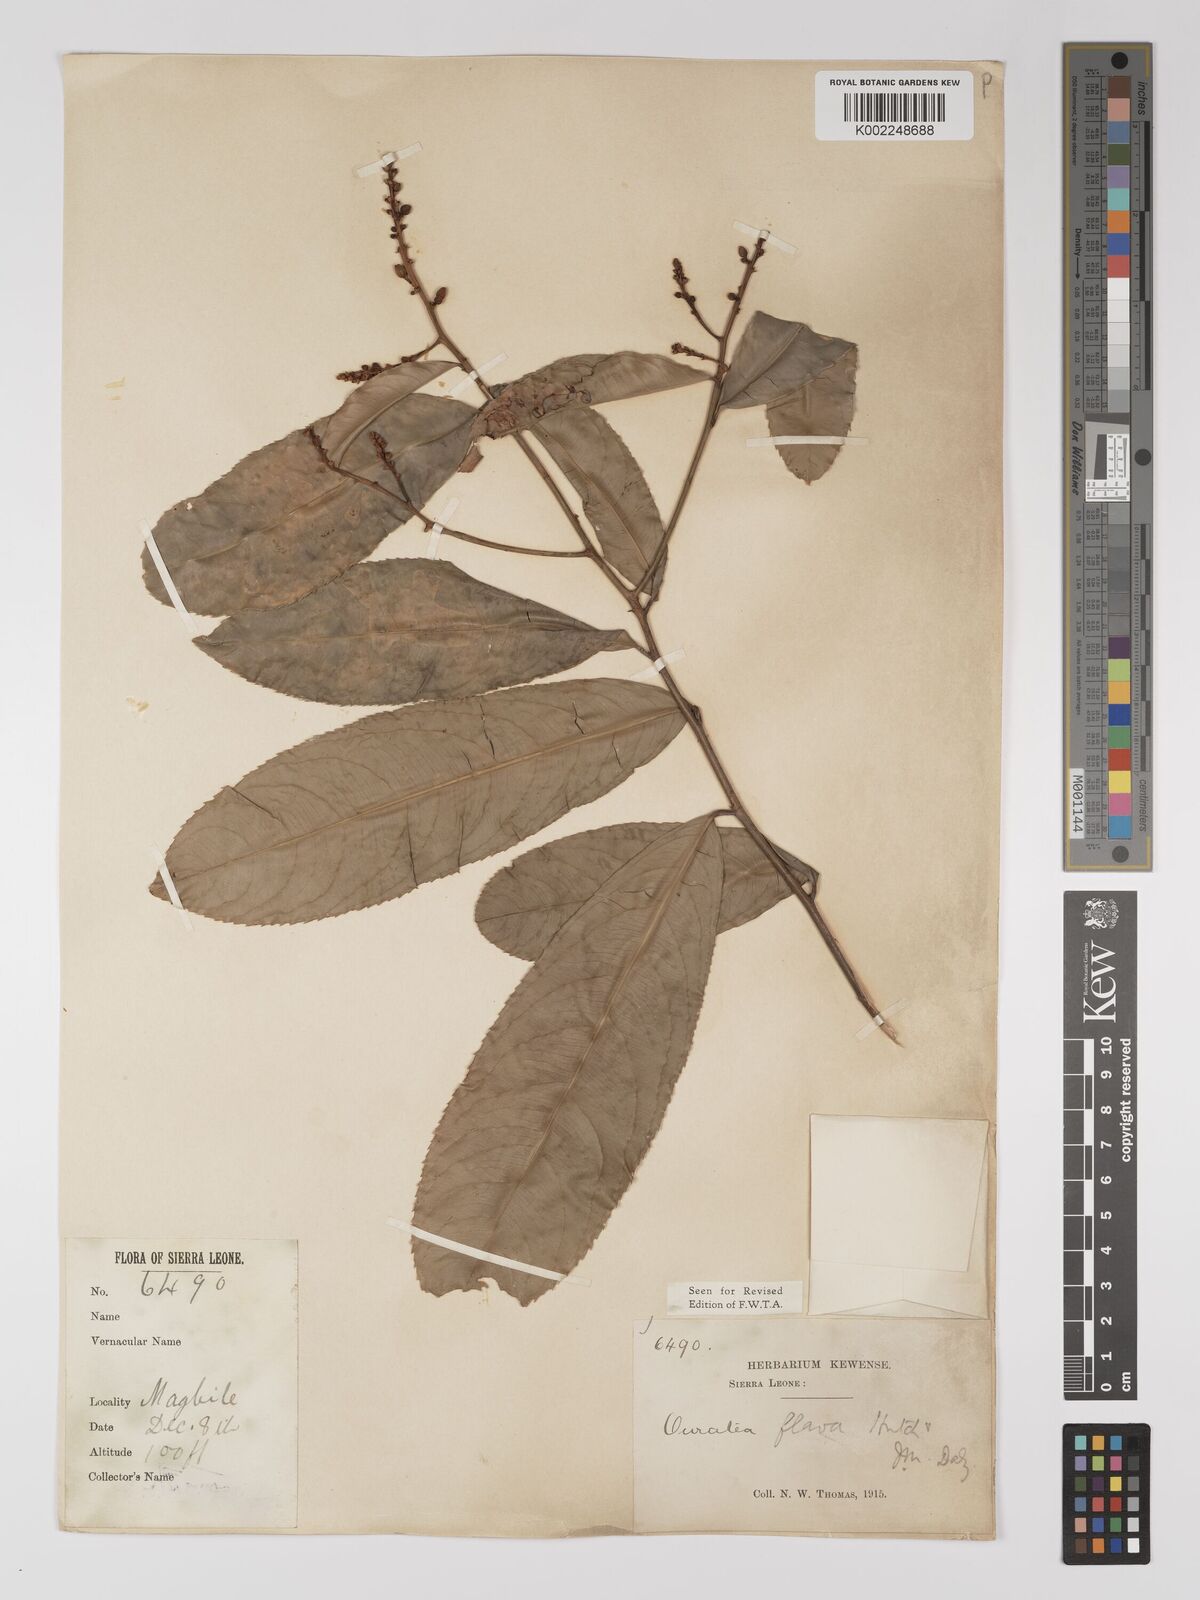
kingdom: Plantae
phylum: Tracheophyta
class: Magnoliopsida
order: Malpighiales
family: Ochnaceae
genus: Campylospermum
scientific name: Campylospermum flavum
